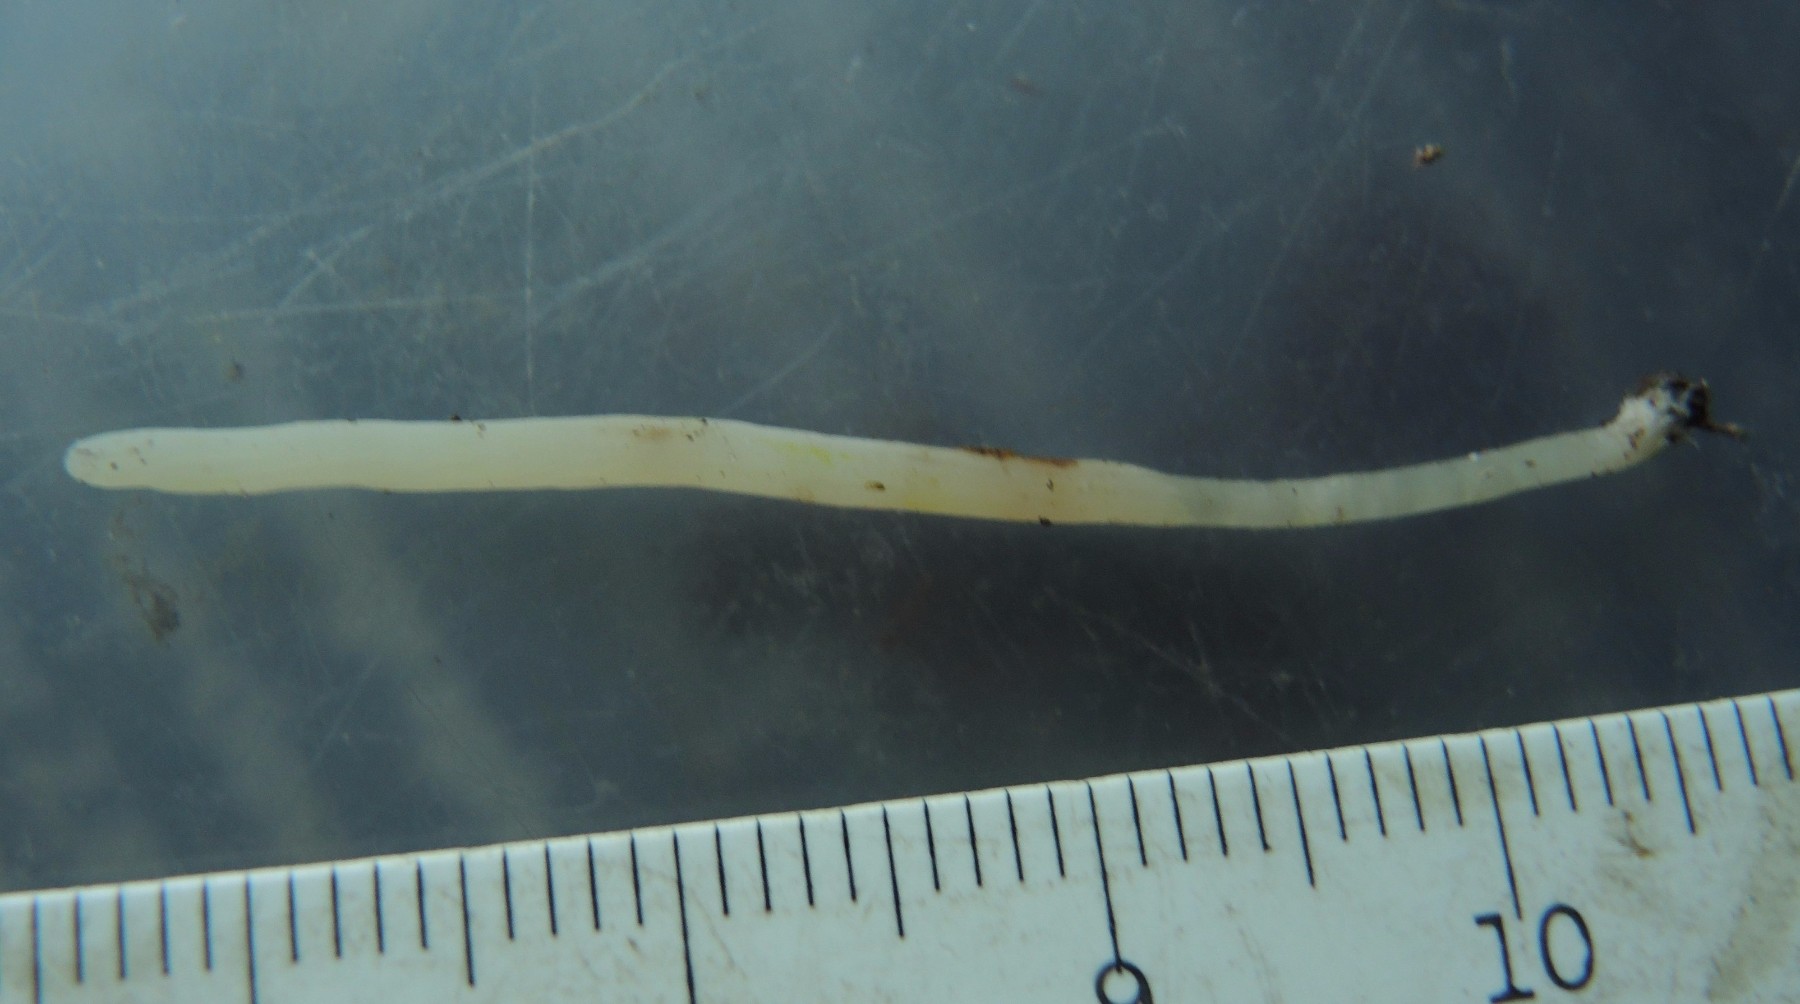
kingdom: Fungi
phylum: Basidiomycota
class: Agaricomycetes
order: Agaricales
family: Clavariaceae
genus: Clavaria
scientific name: Clavaria falcata
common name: hvid køllesvamp
